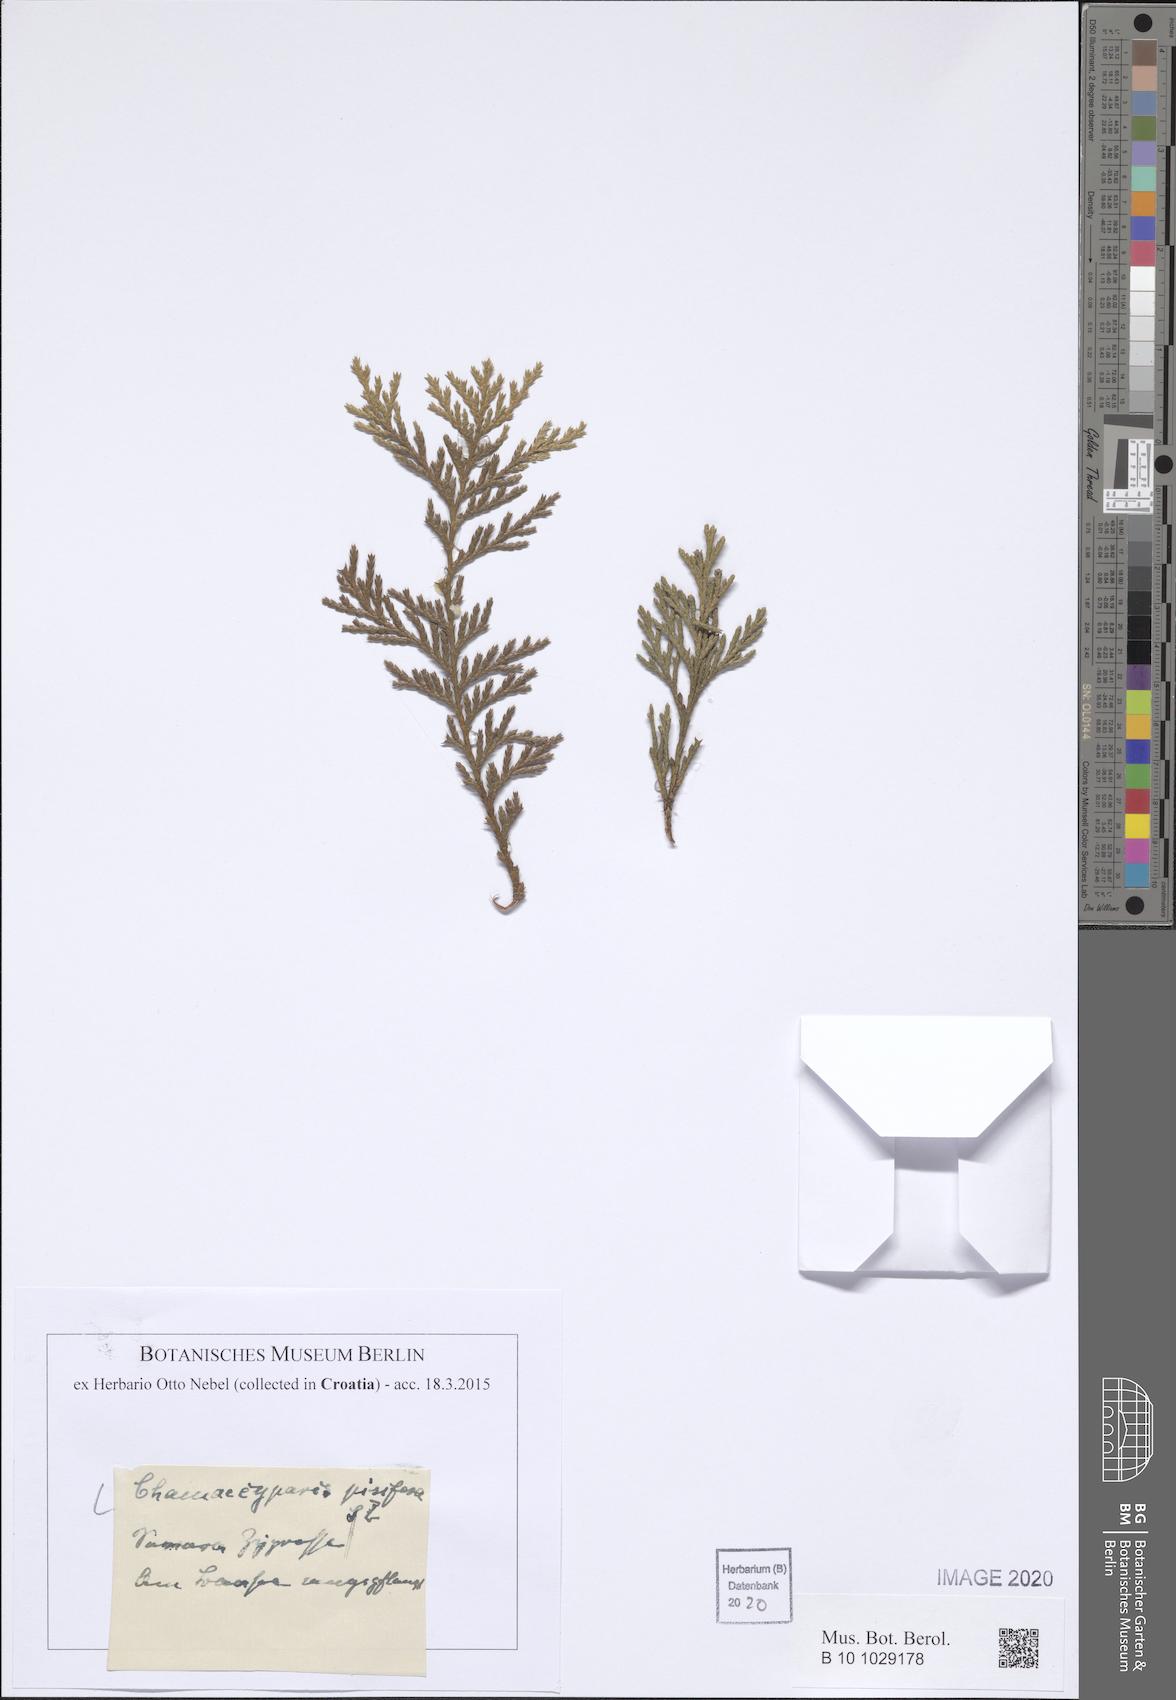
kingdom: Plantae
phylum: Tracheophyta
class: Pinopsida
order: Pinales
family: Cupressaceae
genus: Chamaecyparis
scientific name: Chamaecyparis pisifera
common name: Sawara cypress
